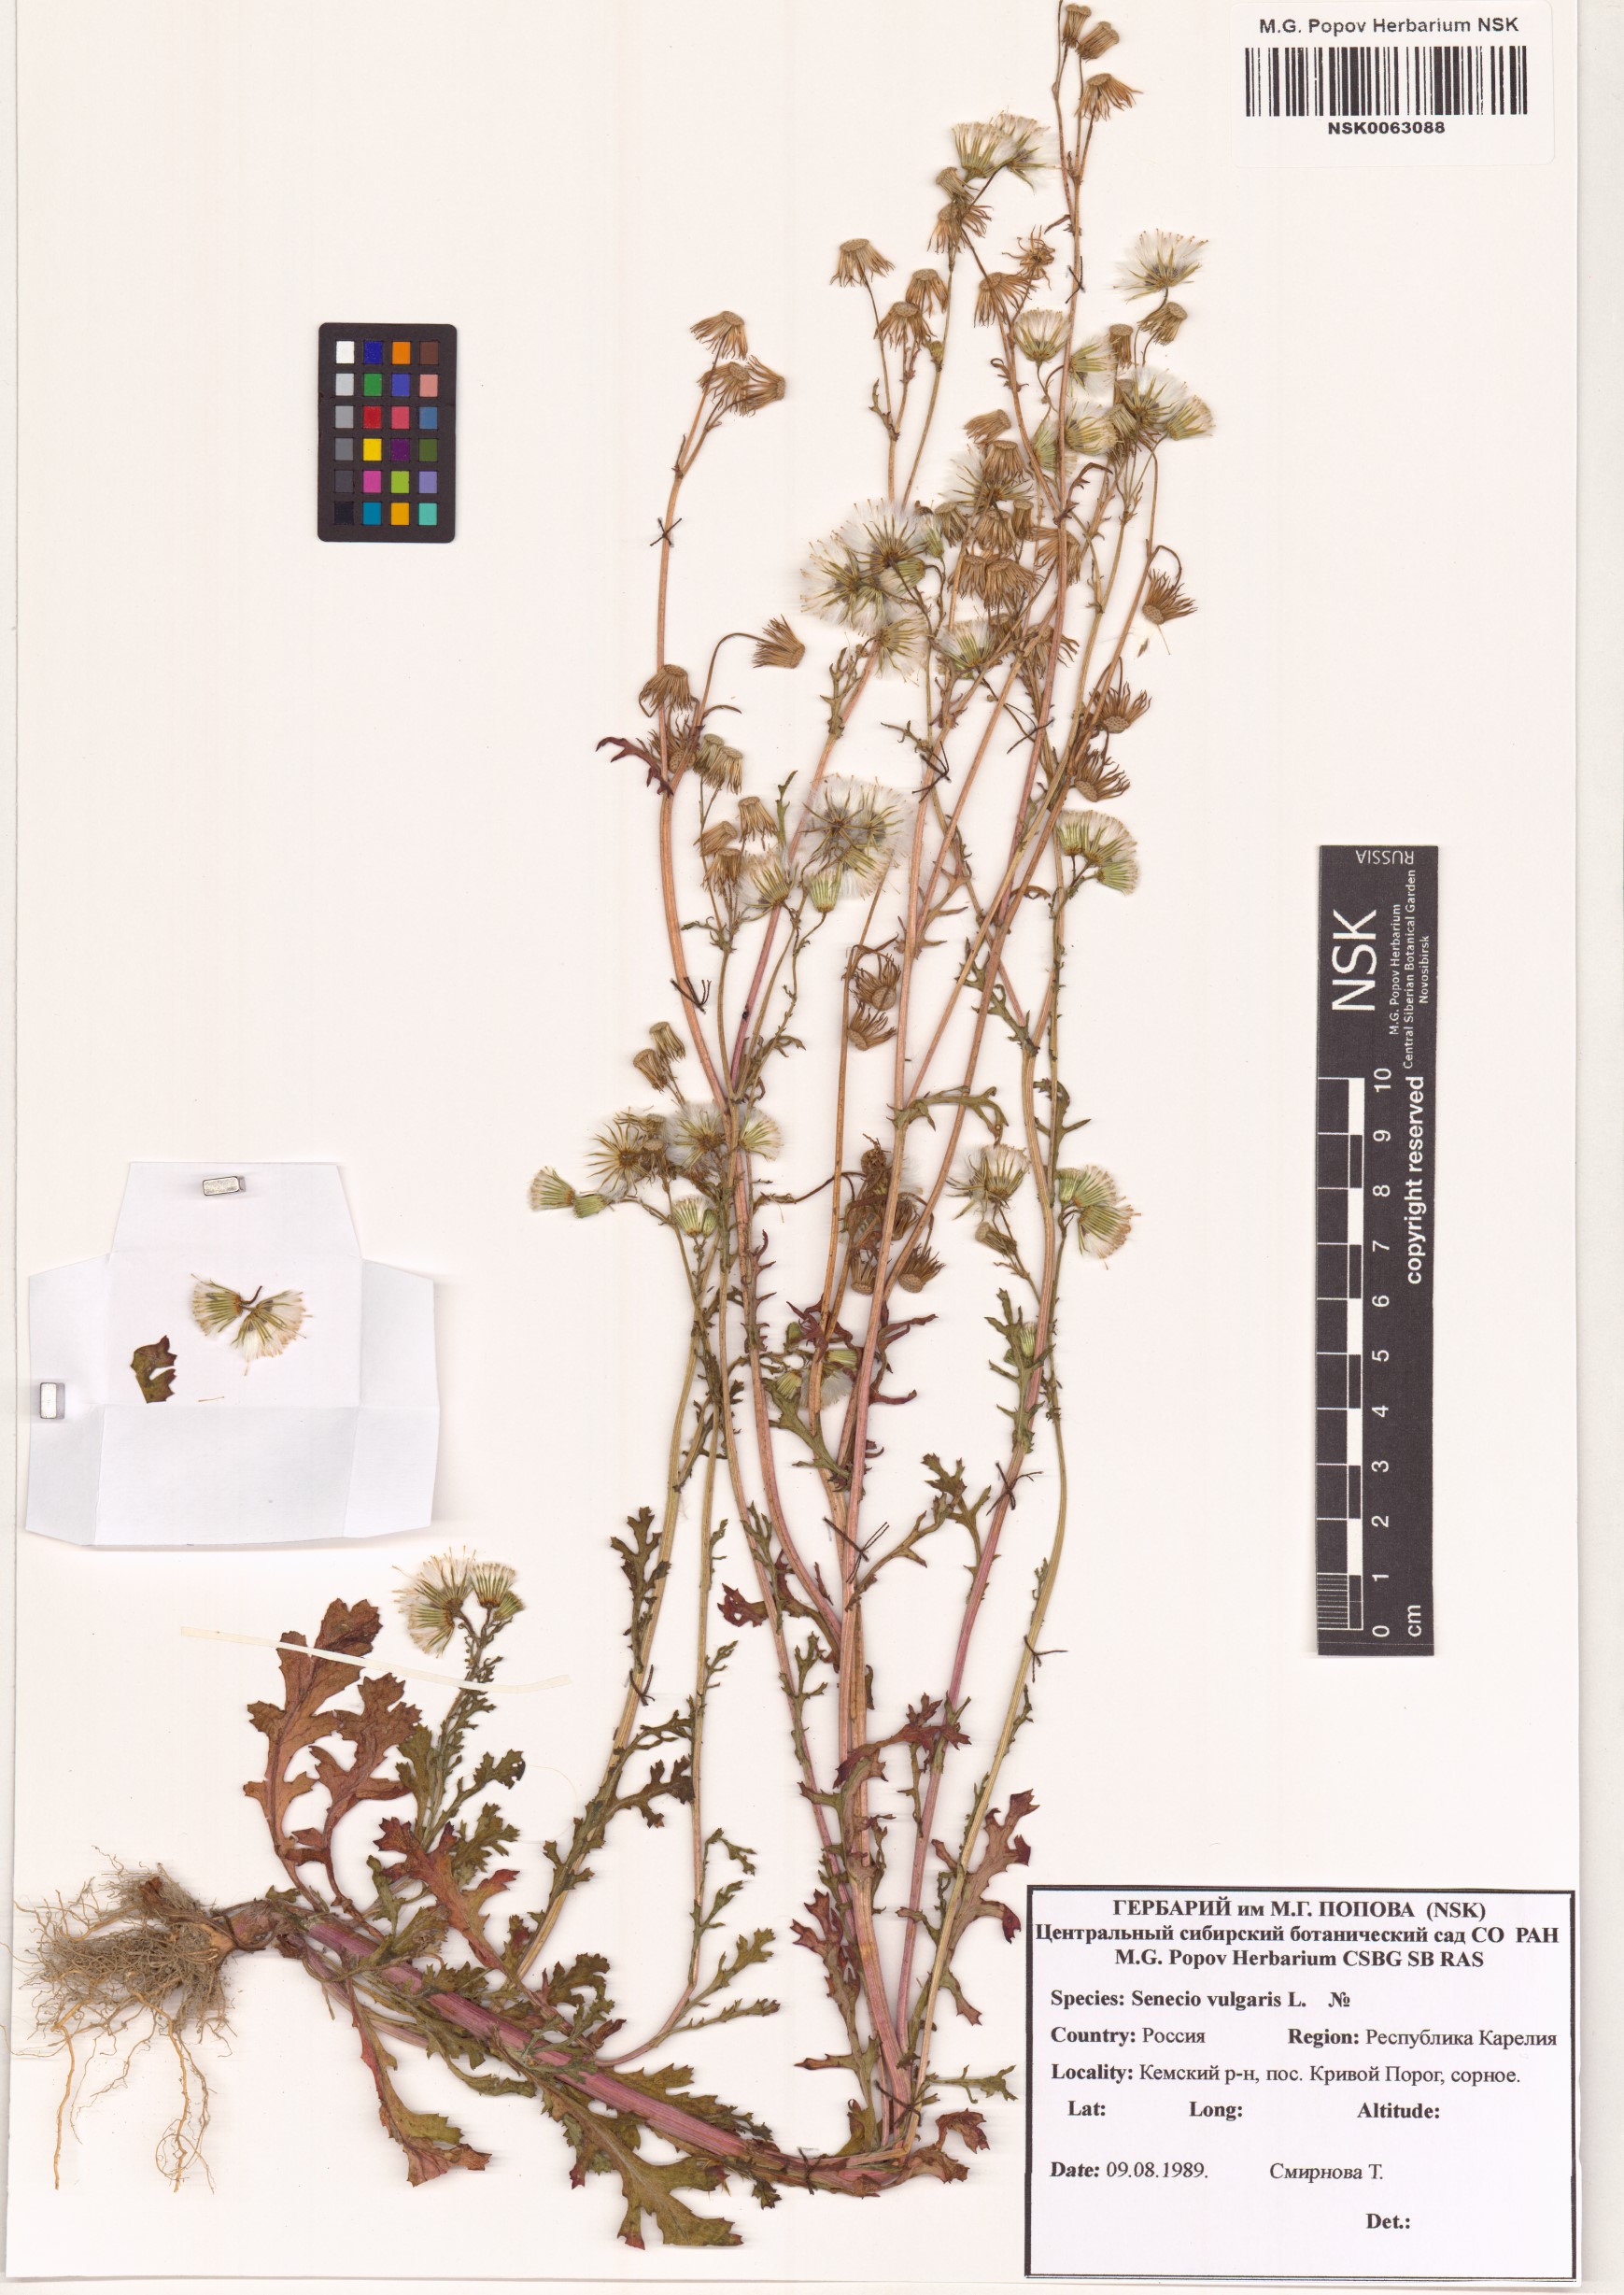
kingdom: Plantae
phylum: Tracheophyta
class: Magnoliopsida
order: Asterales
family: Asteraceae
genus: Senecio
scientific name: Senecio vulgaris
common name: Old-man-in-the-spring
